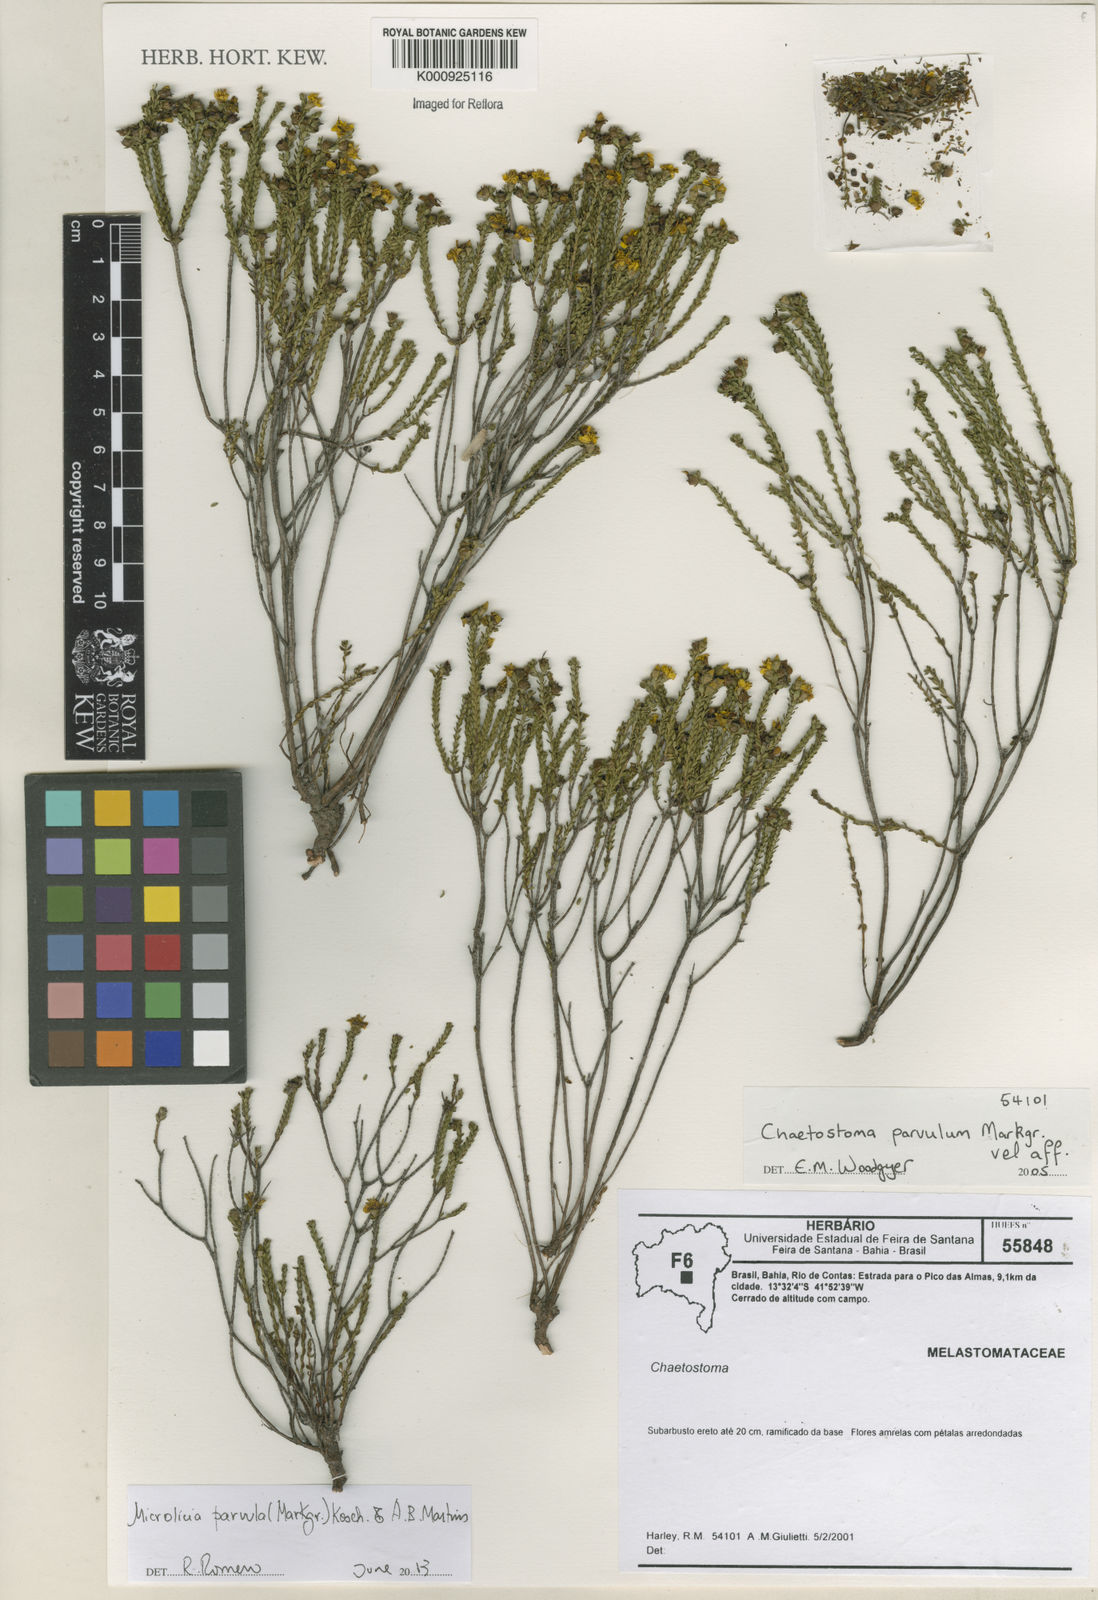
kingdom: Plantae
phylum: Tracheophyta
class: Magnoliopsida
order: Myrtales
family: Melastomataceae
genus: Microlicia
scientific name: Microlicia parvula
